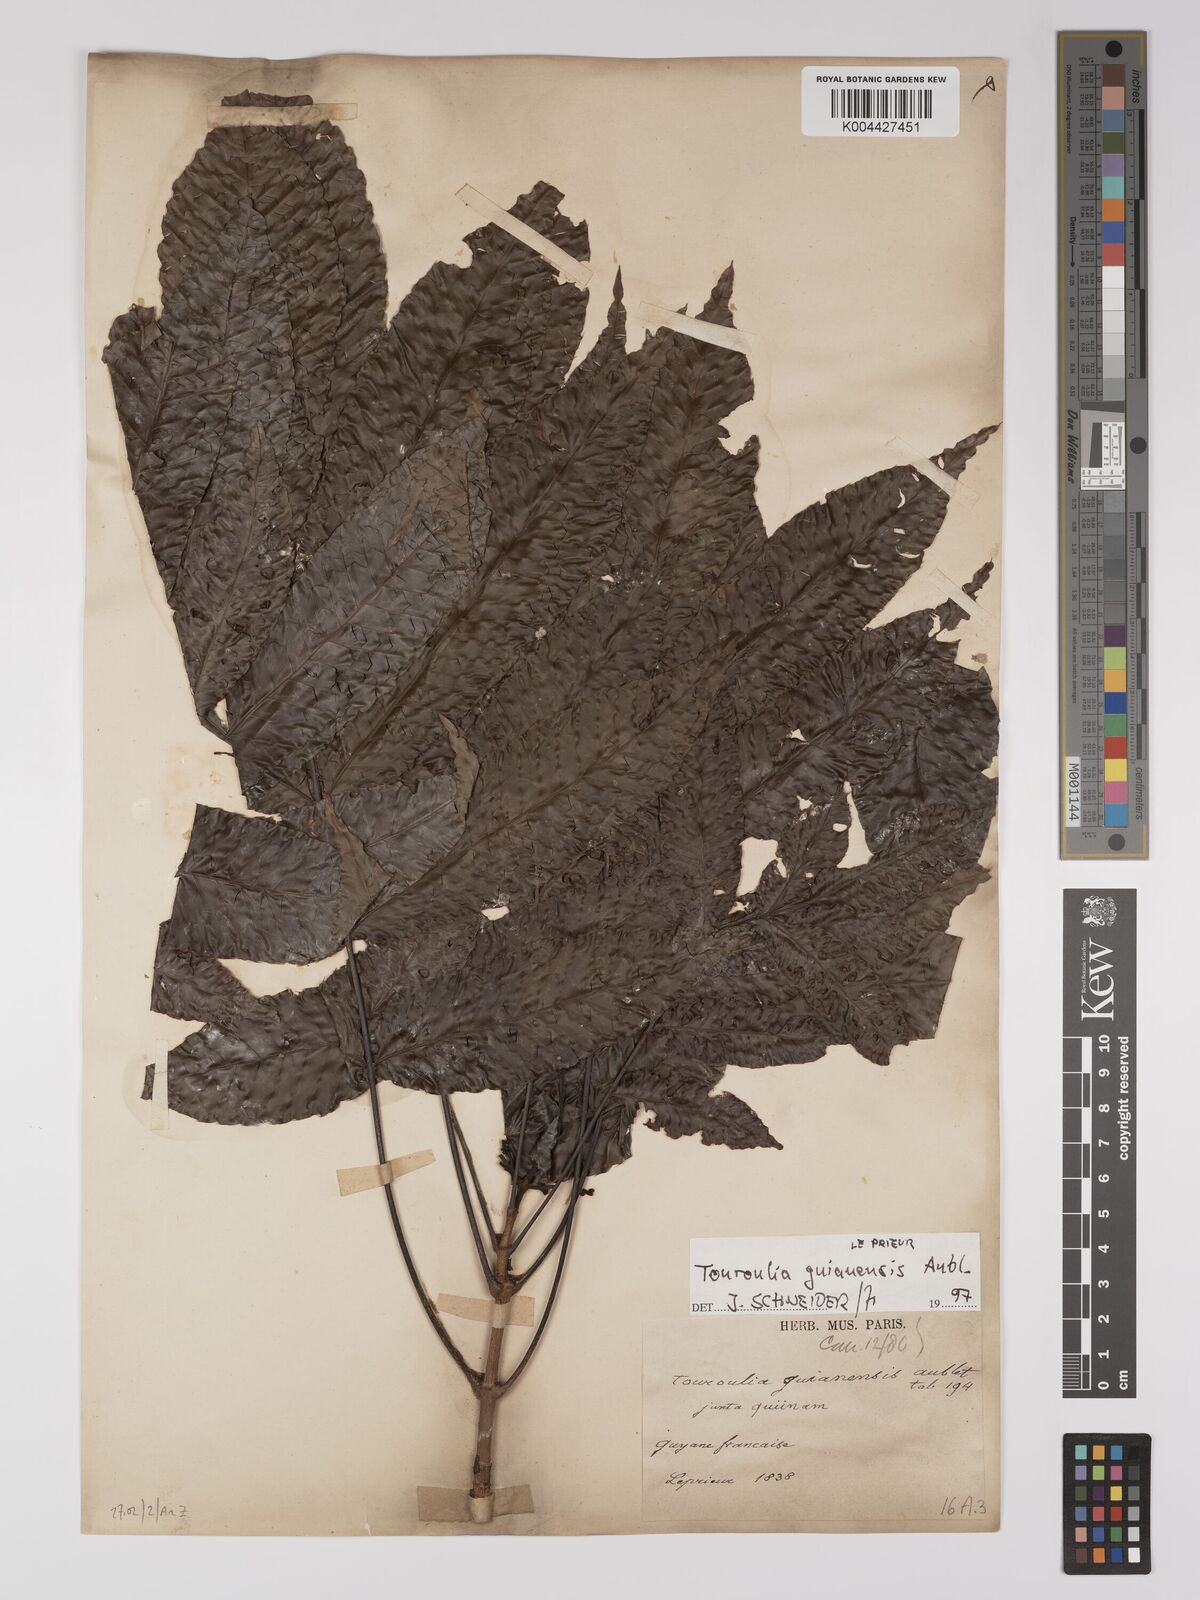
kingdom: Plantae
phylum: Tracheophyta
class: Magnoliopsida
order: Malpighiales
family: Quiinaceae
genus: Touroulia
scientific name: Touroulia guianensis
